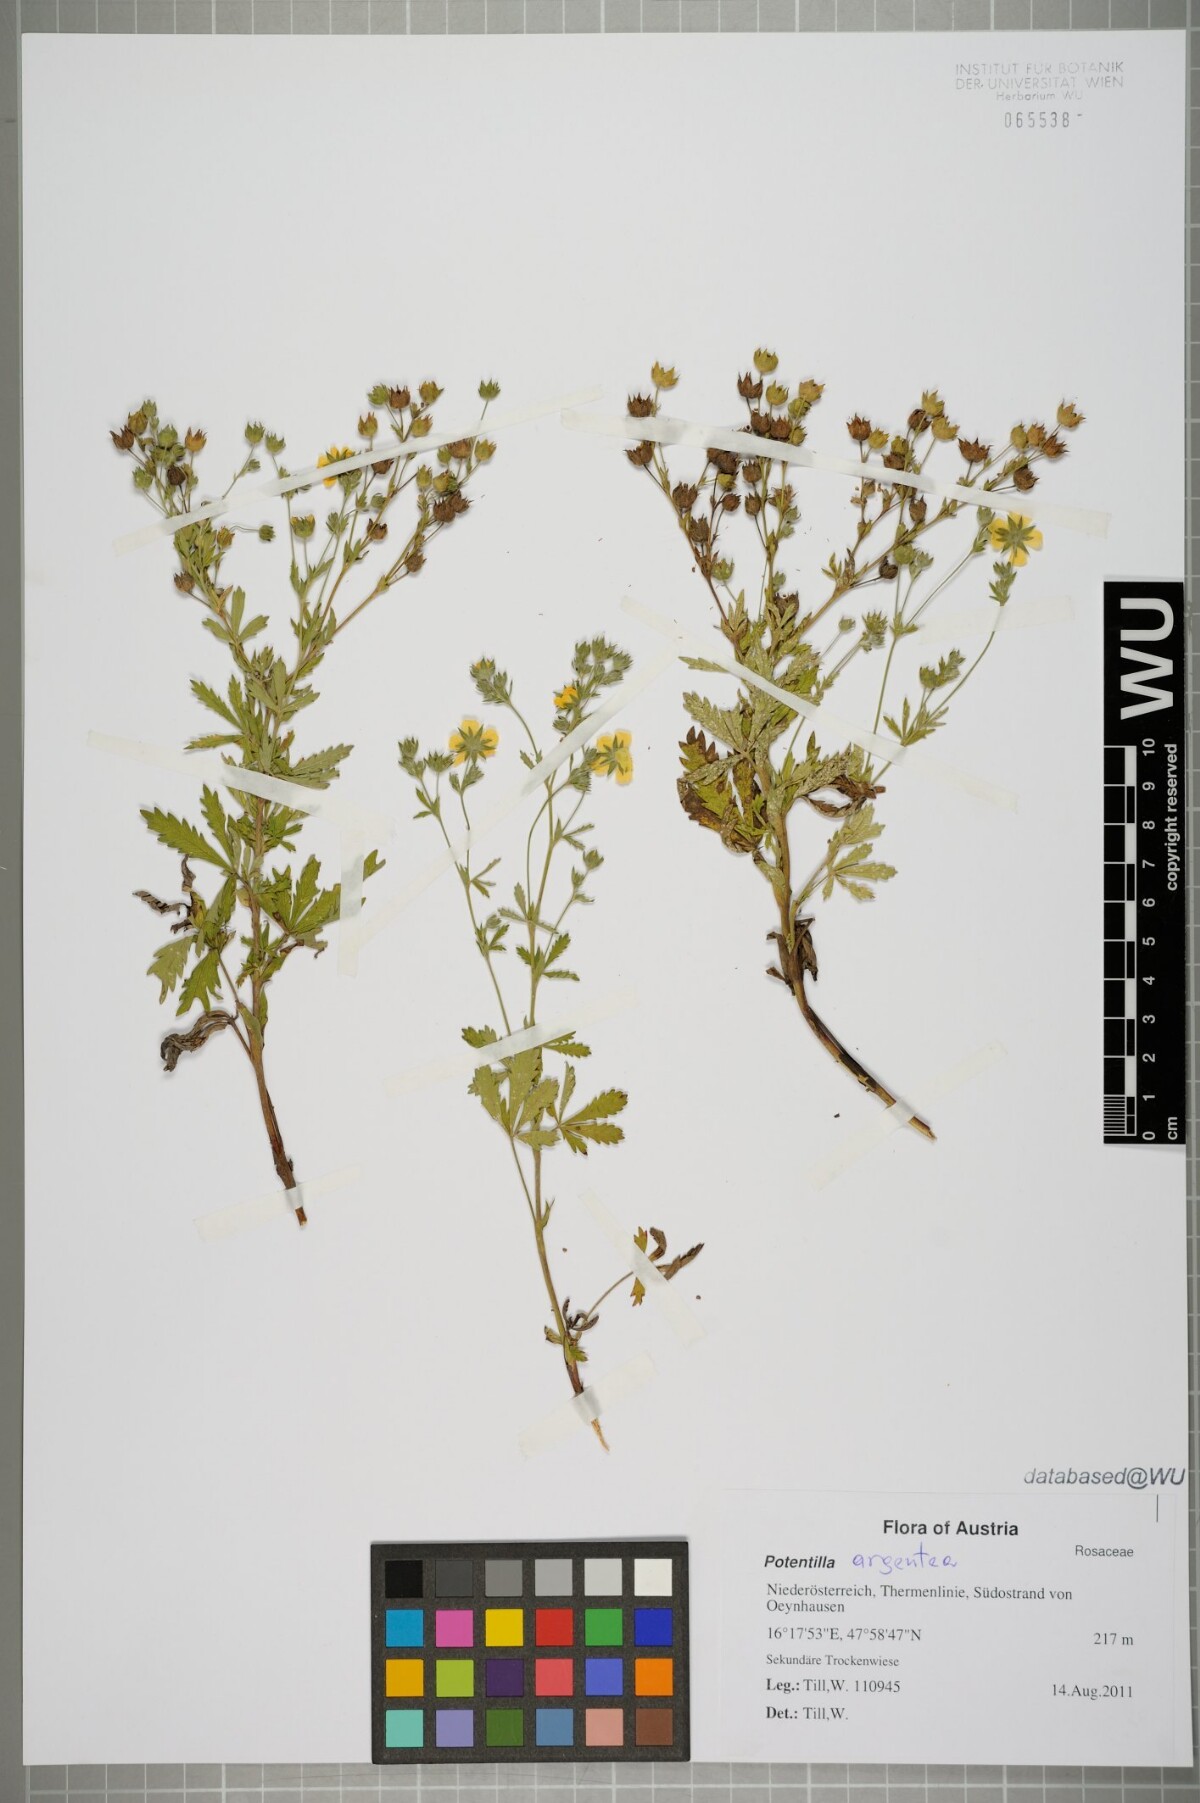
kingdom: Plantae
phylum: Tracheophyta
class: Magnoliopsida
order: Rosales
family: Rosaceae
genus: Potentilla
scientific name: Potentilla argentea
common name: Hoary cinquefoil
